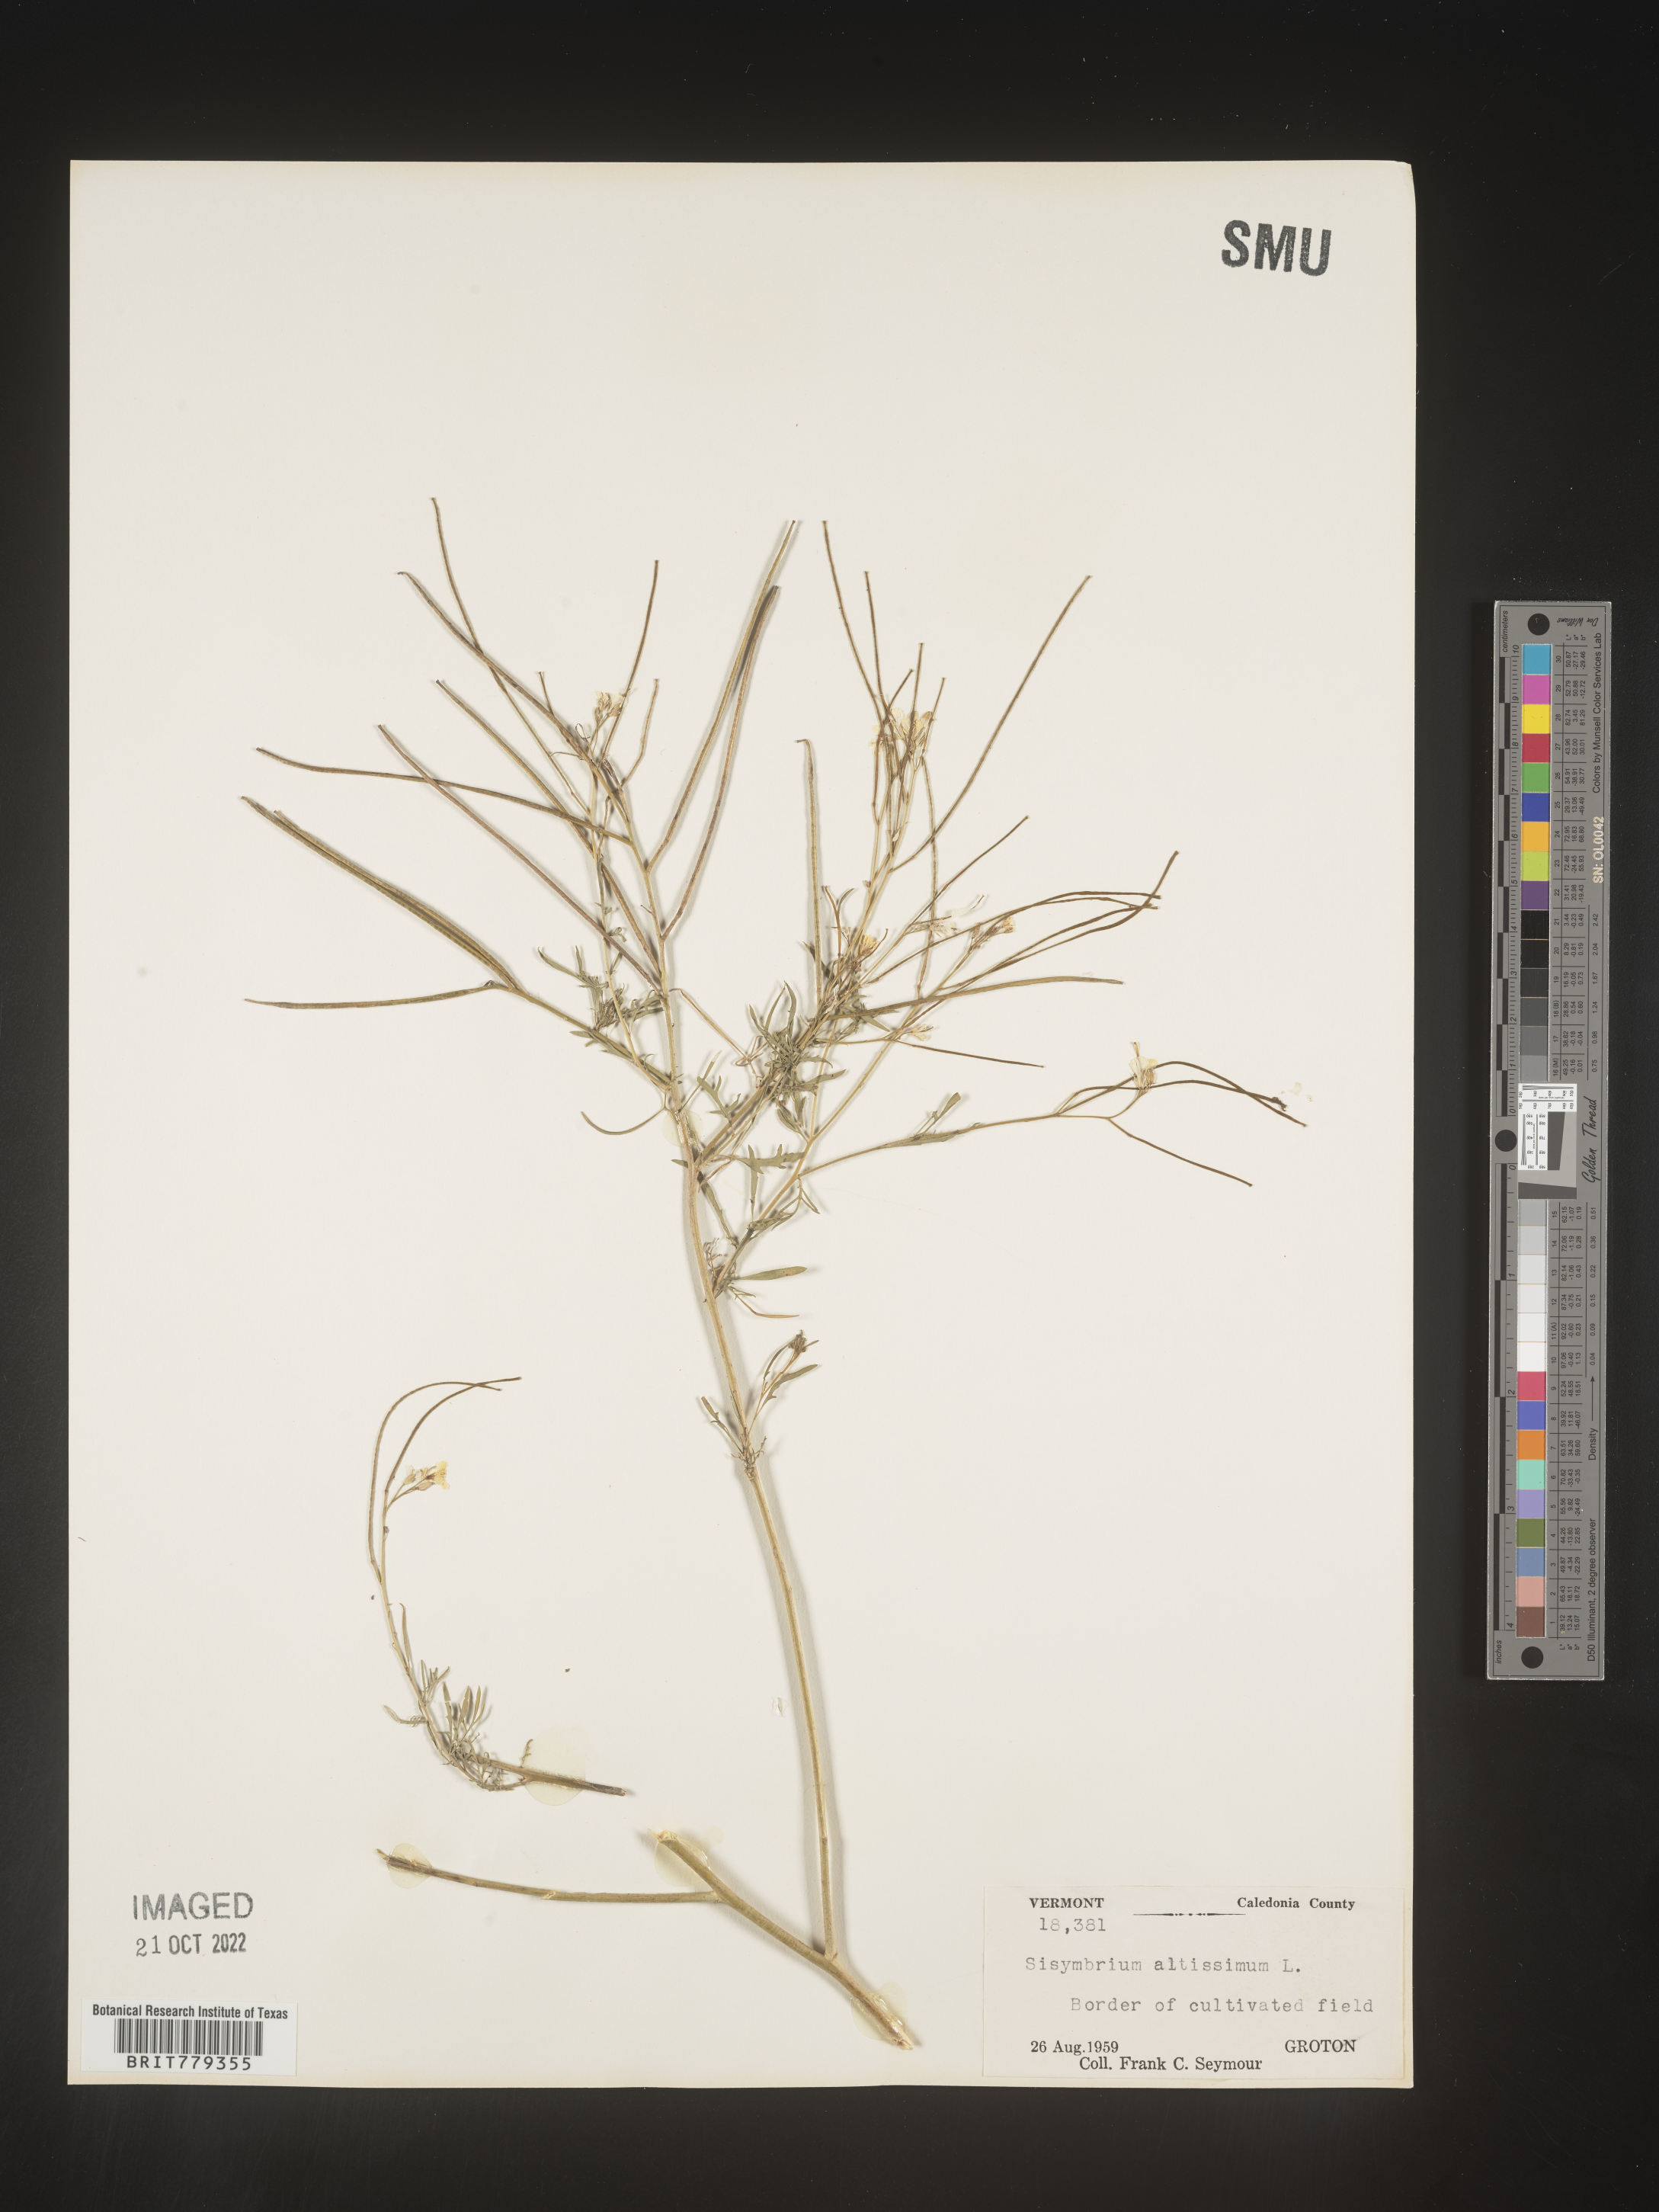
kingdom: Plantae
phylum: Tracheophyta
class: Magnoliopsida
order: Brassicales
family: Brassicaceae
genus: Sisymbrium
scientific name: Sisymbrium altissimum
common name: Tall rocket
